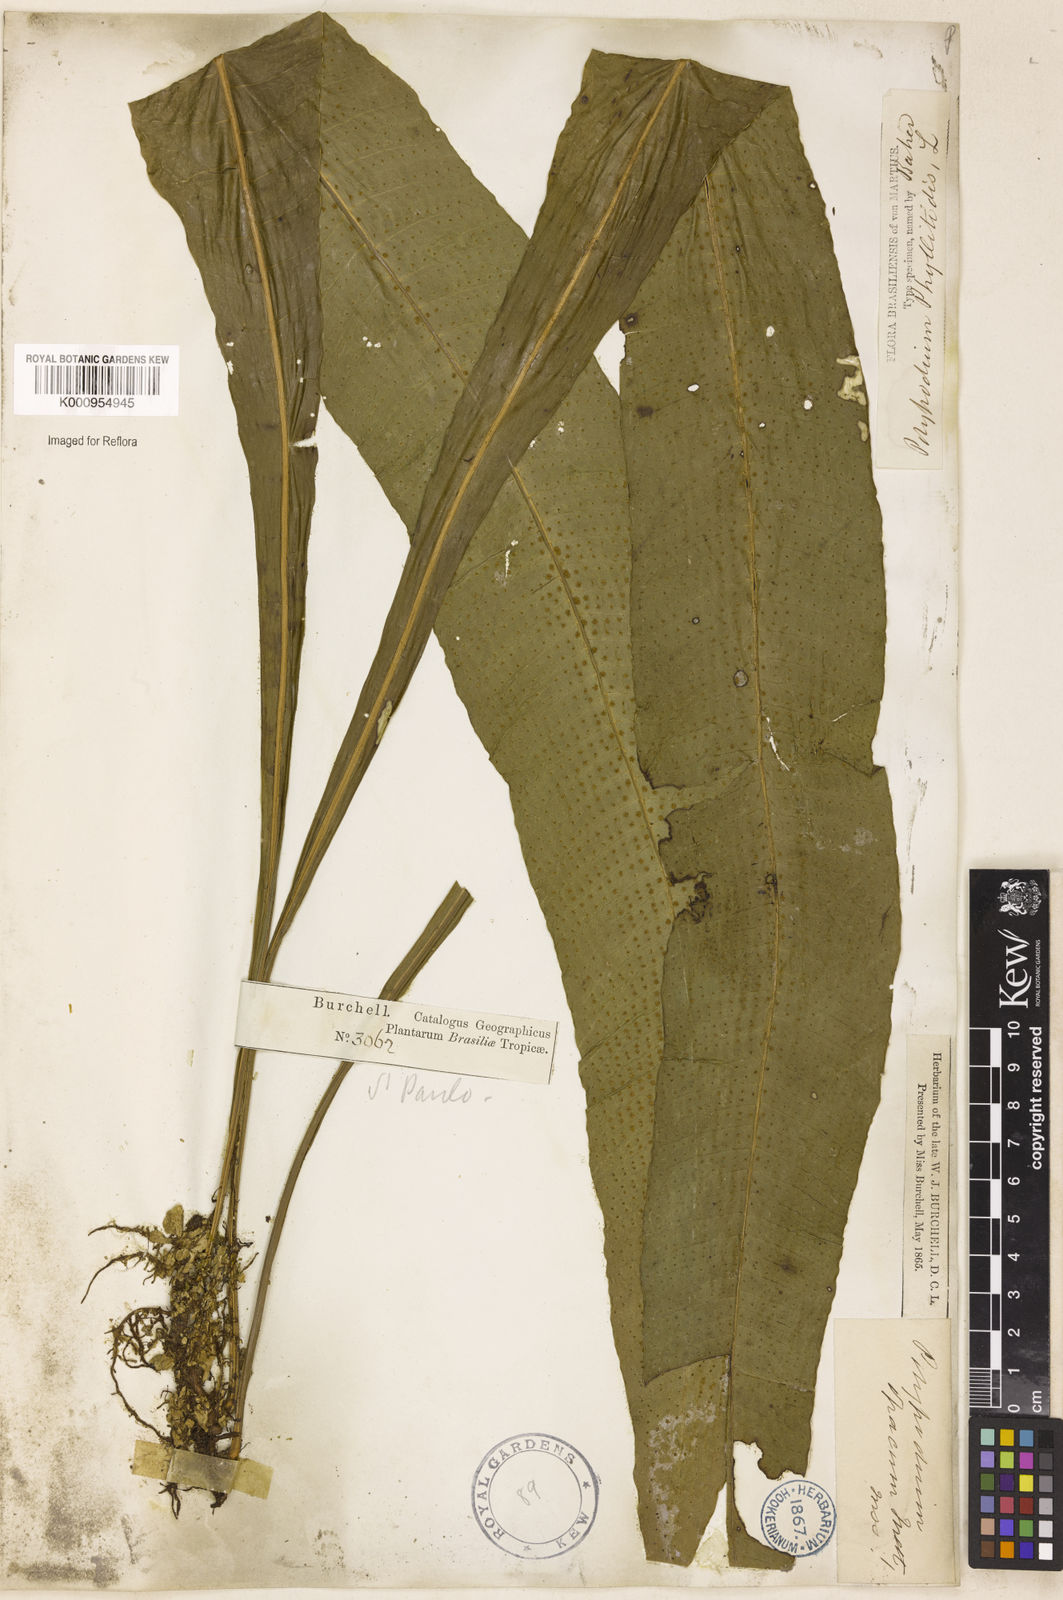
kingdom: Plantae
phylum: Tracheophyta
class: Polypodiopsida
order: Polypodiales
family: Polypodiaceae
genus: Campyloneurum
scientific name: Campyloneurum repens
